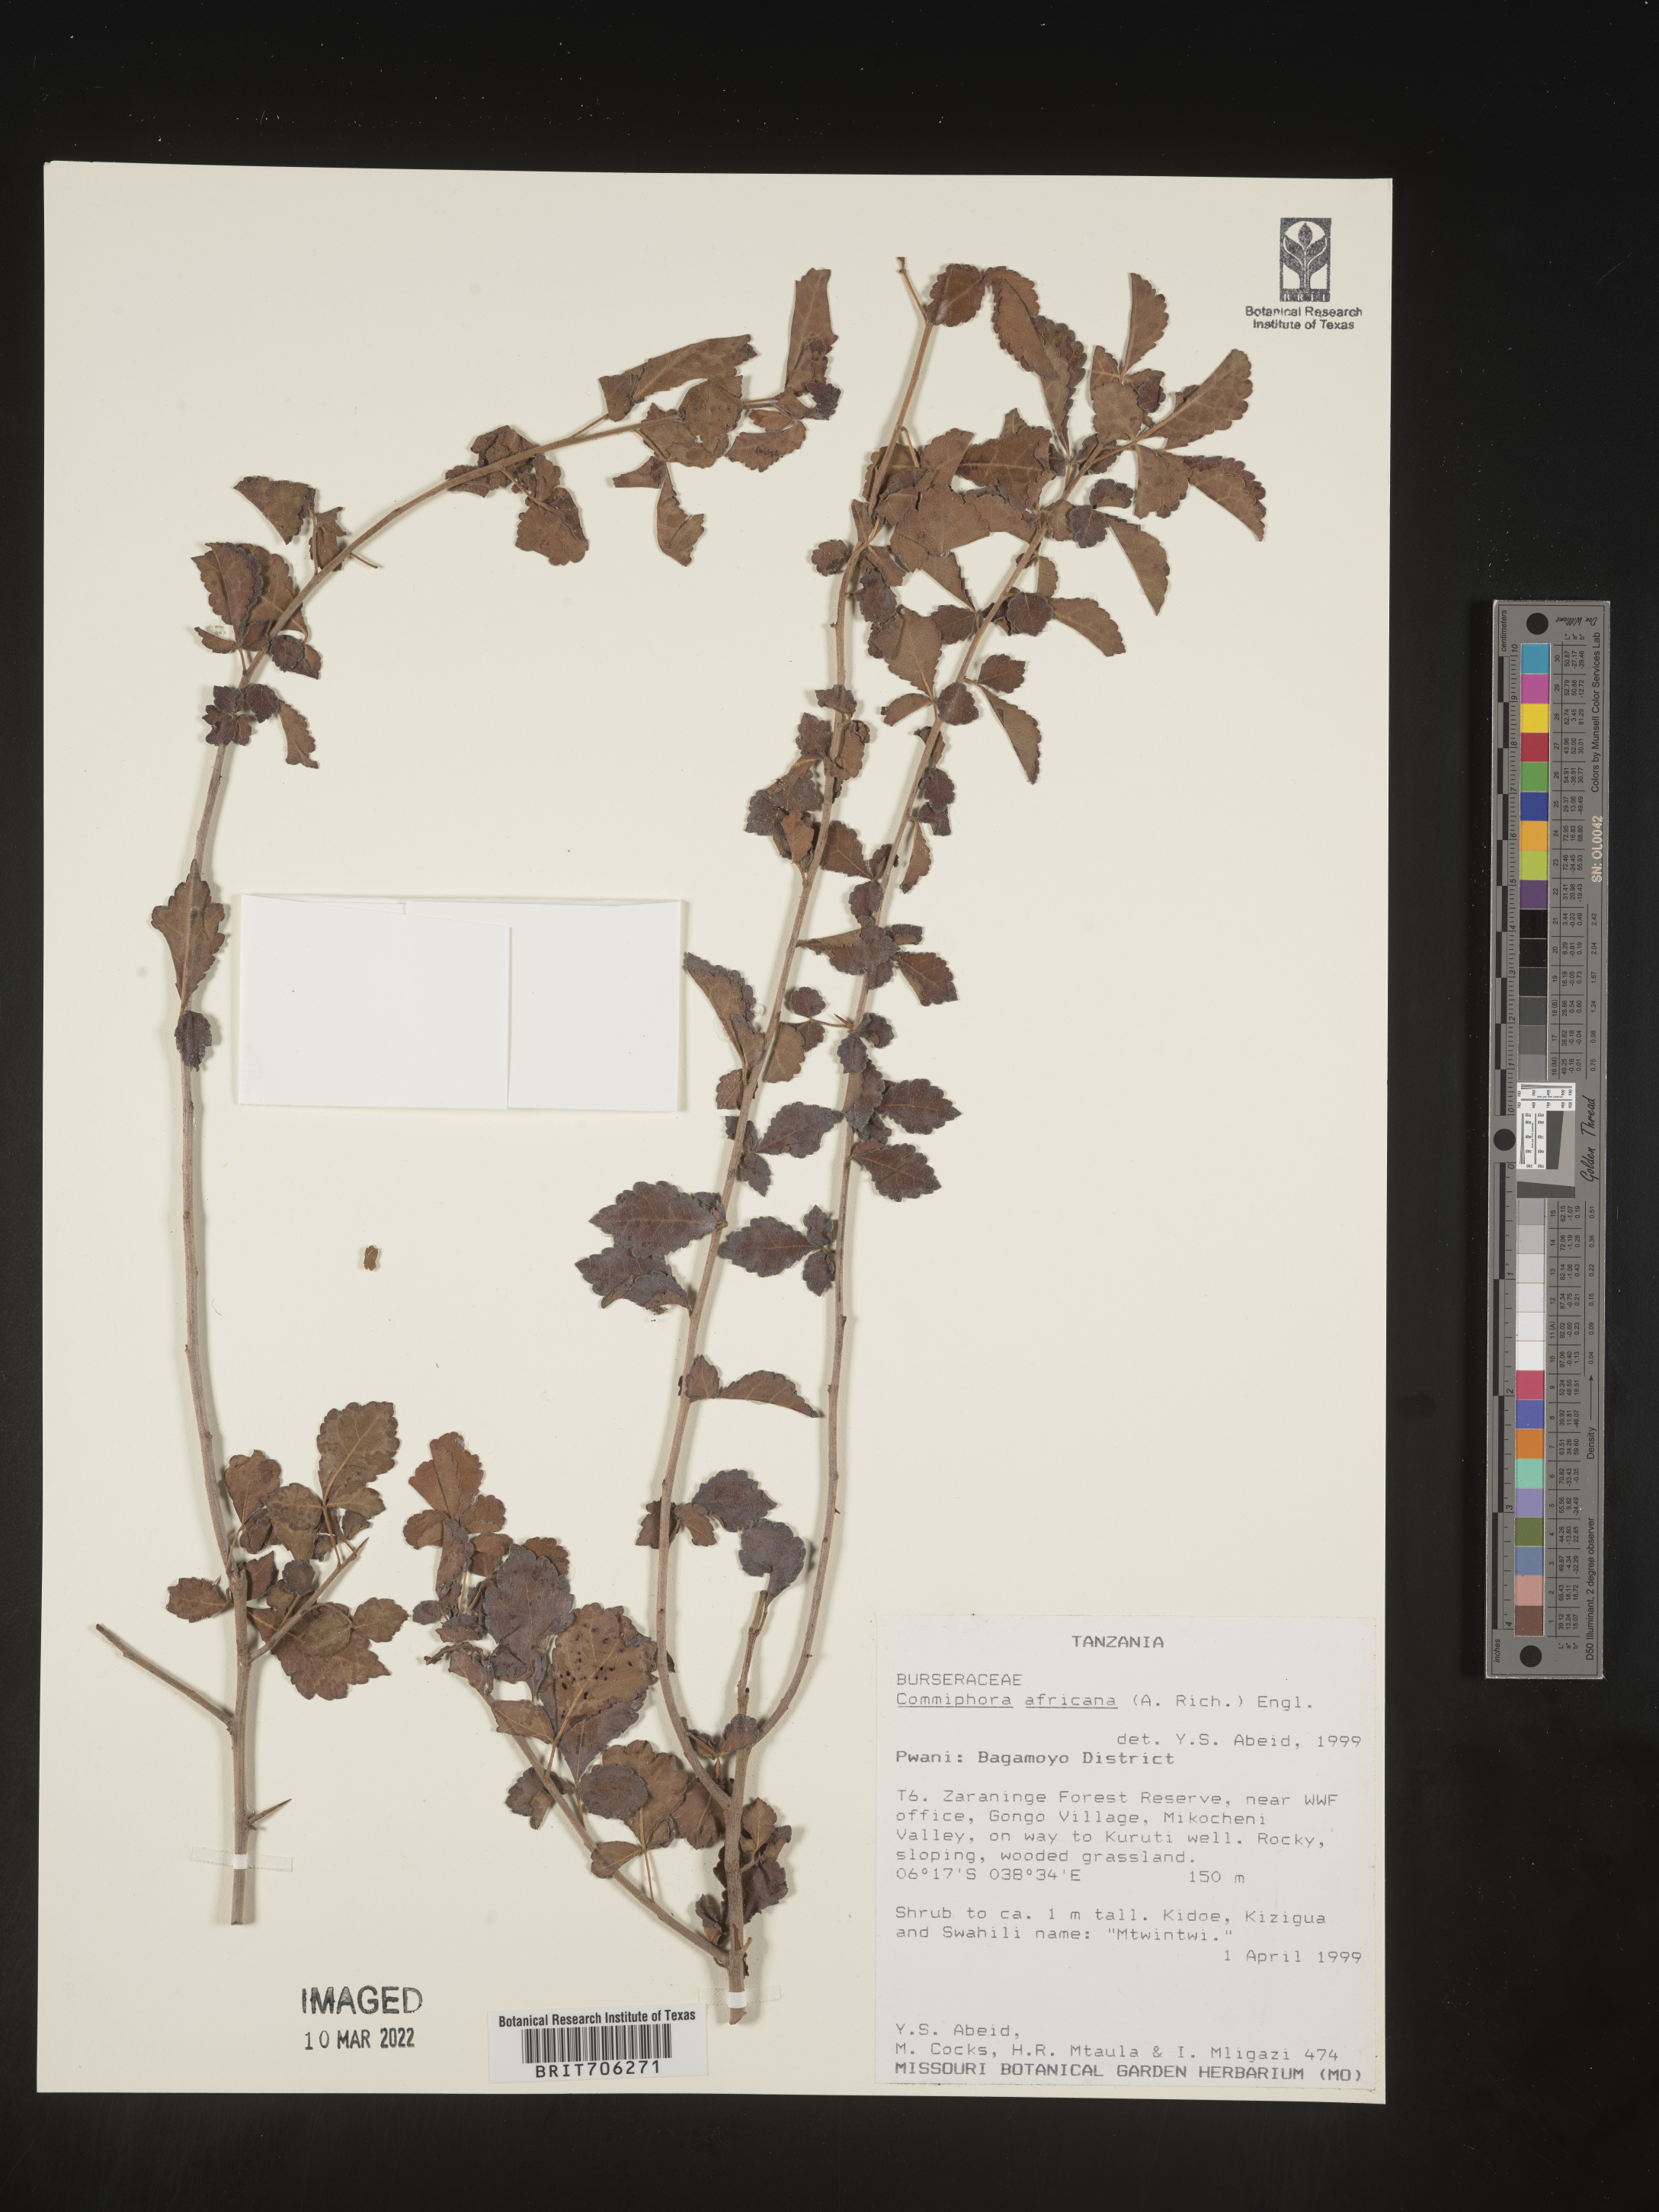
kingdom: Plantae
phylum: Tracheophyta
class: Magnoliopsida
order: Sapindales
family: Burseraceae
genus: Commiphora
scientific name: Commiphora
